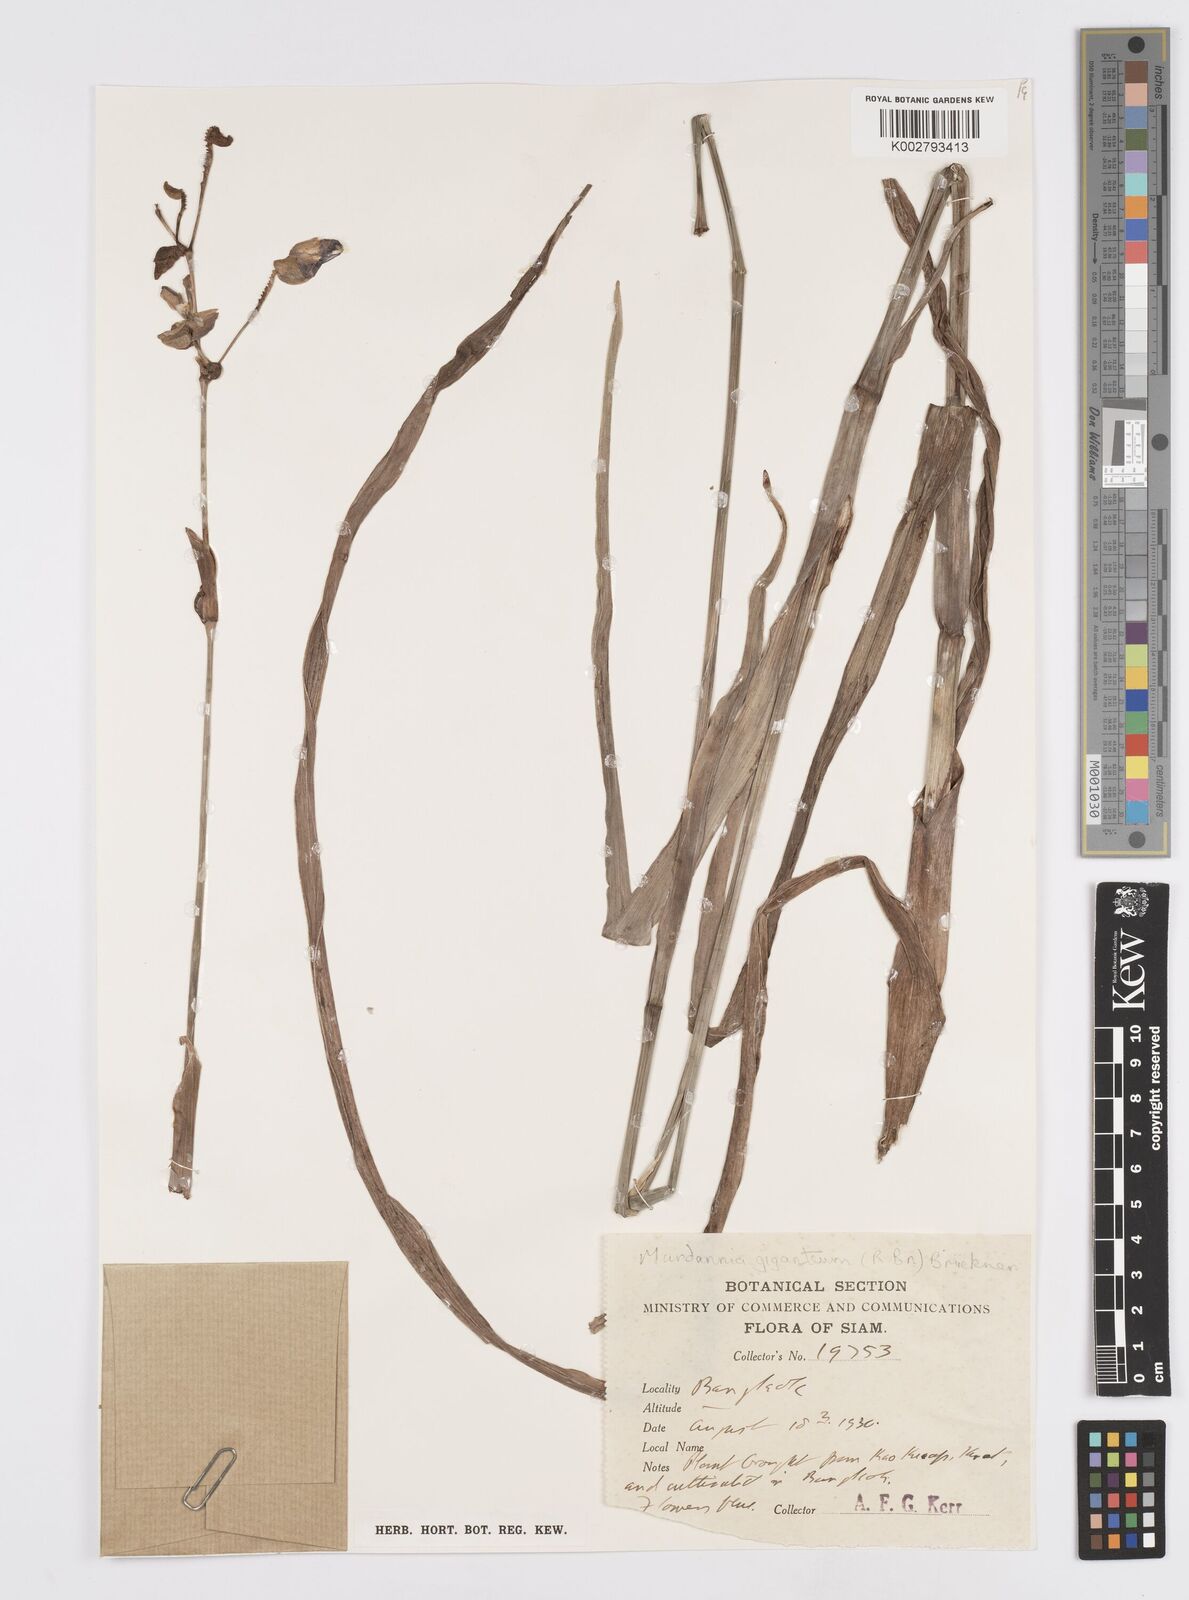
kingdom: Plantae
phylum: Tracheophyta
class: Liliopsida
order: Commelinales
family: Commelinaceae
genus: Murdannia
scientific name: Murdannia gigantea
